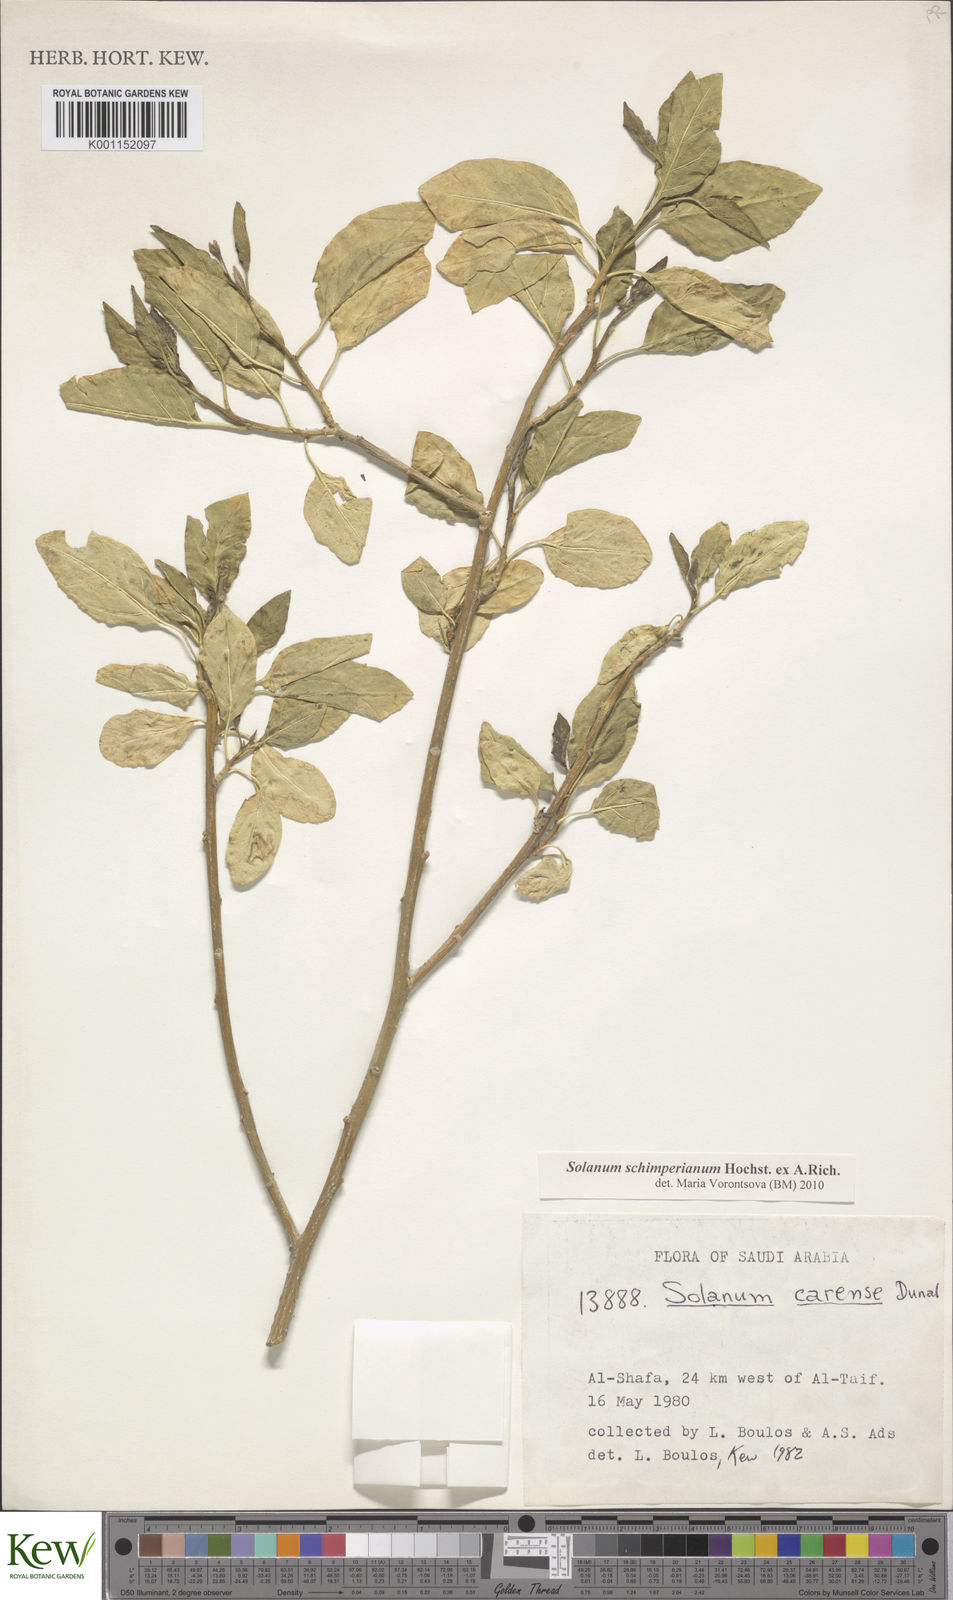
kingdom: Plantae
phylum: Tracheophyta
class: Magnoliopsida
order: Solanales
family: Solanaceae
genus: Solanum
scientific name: Solanum schimperianum
